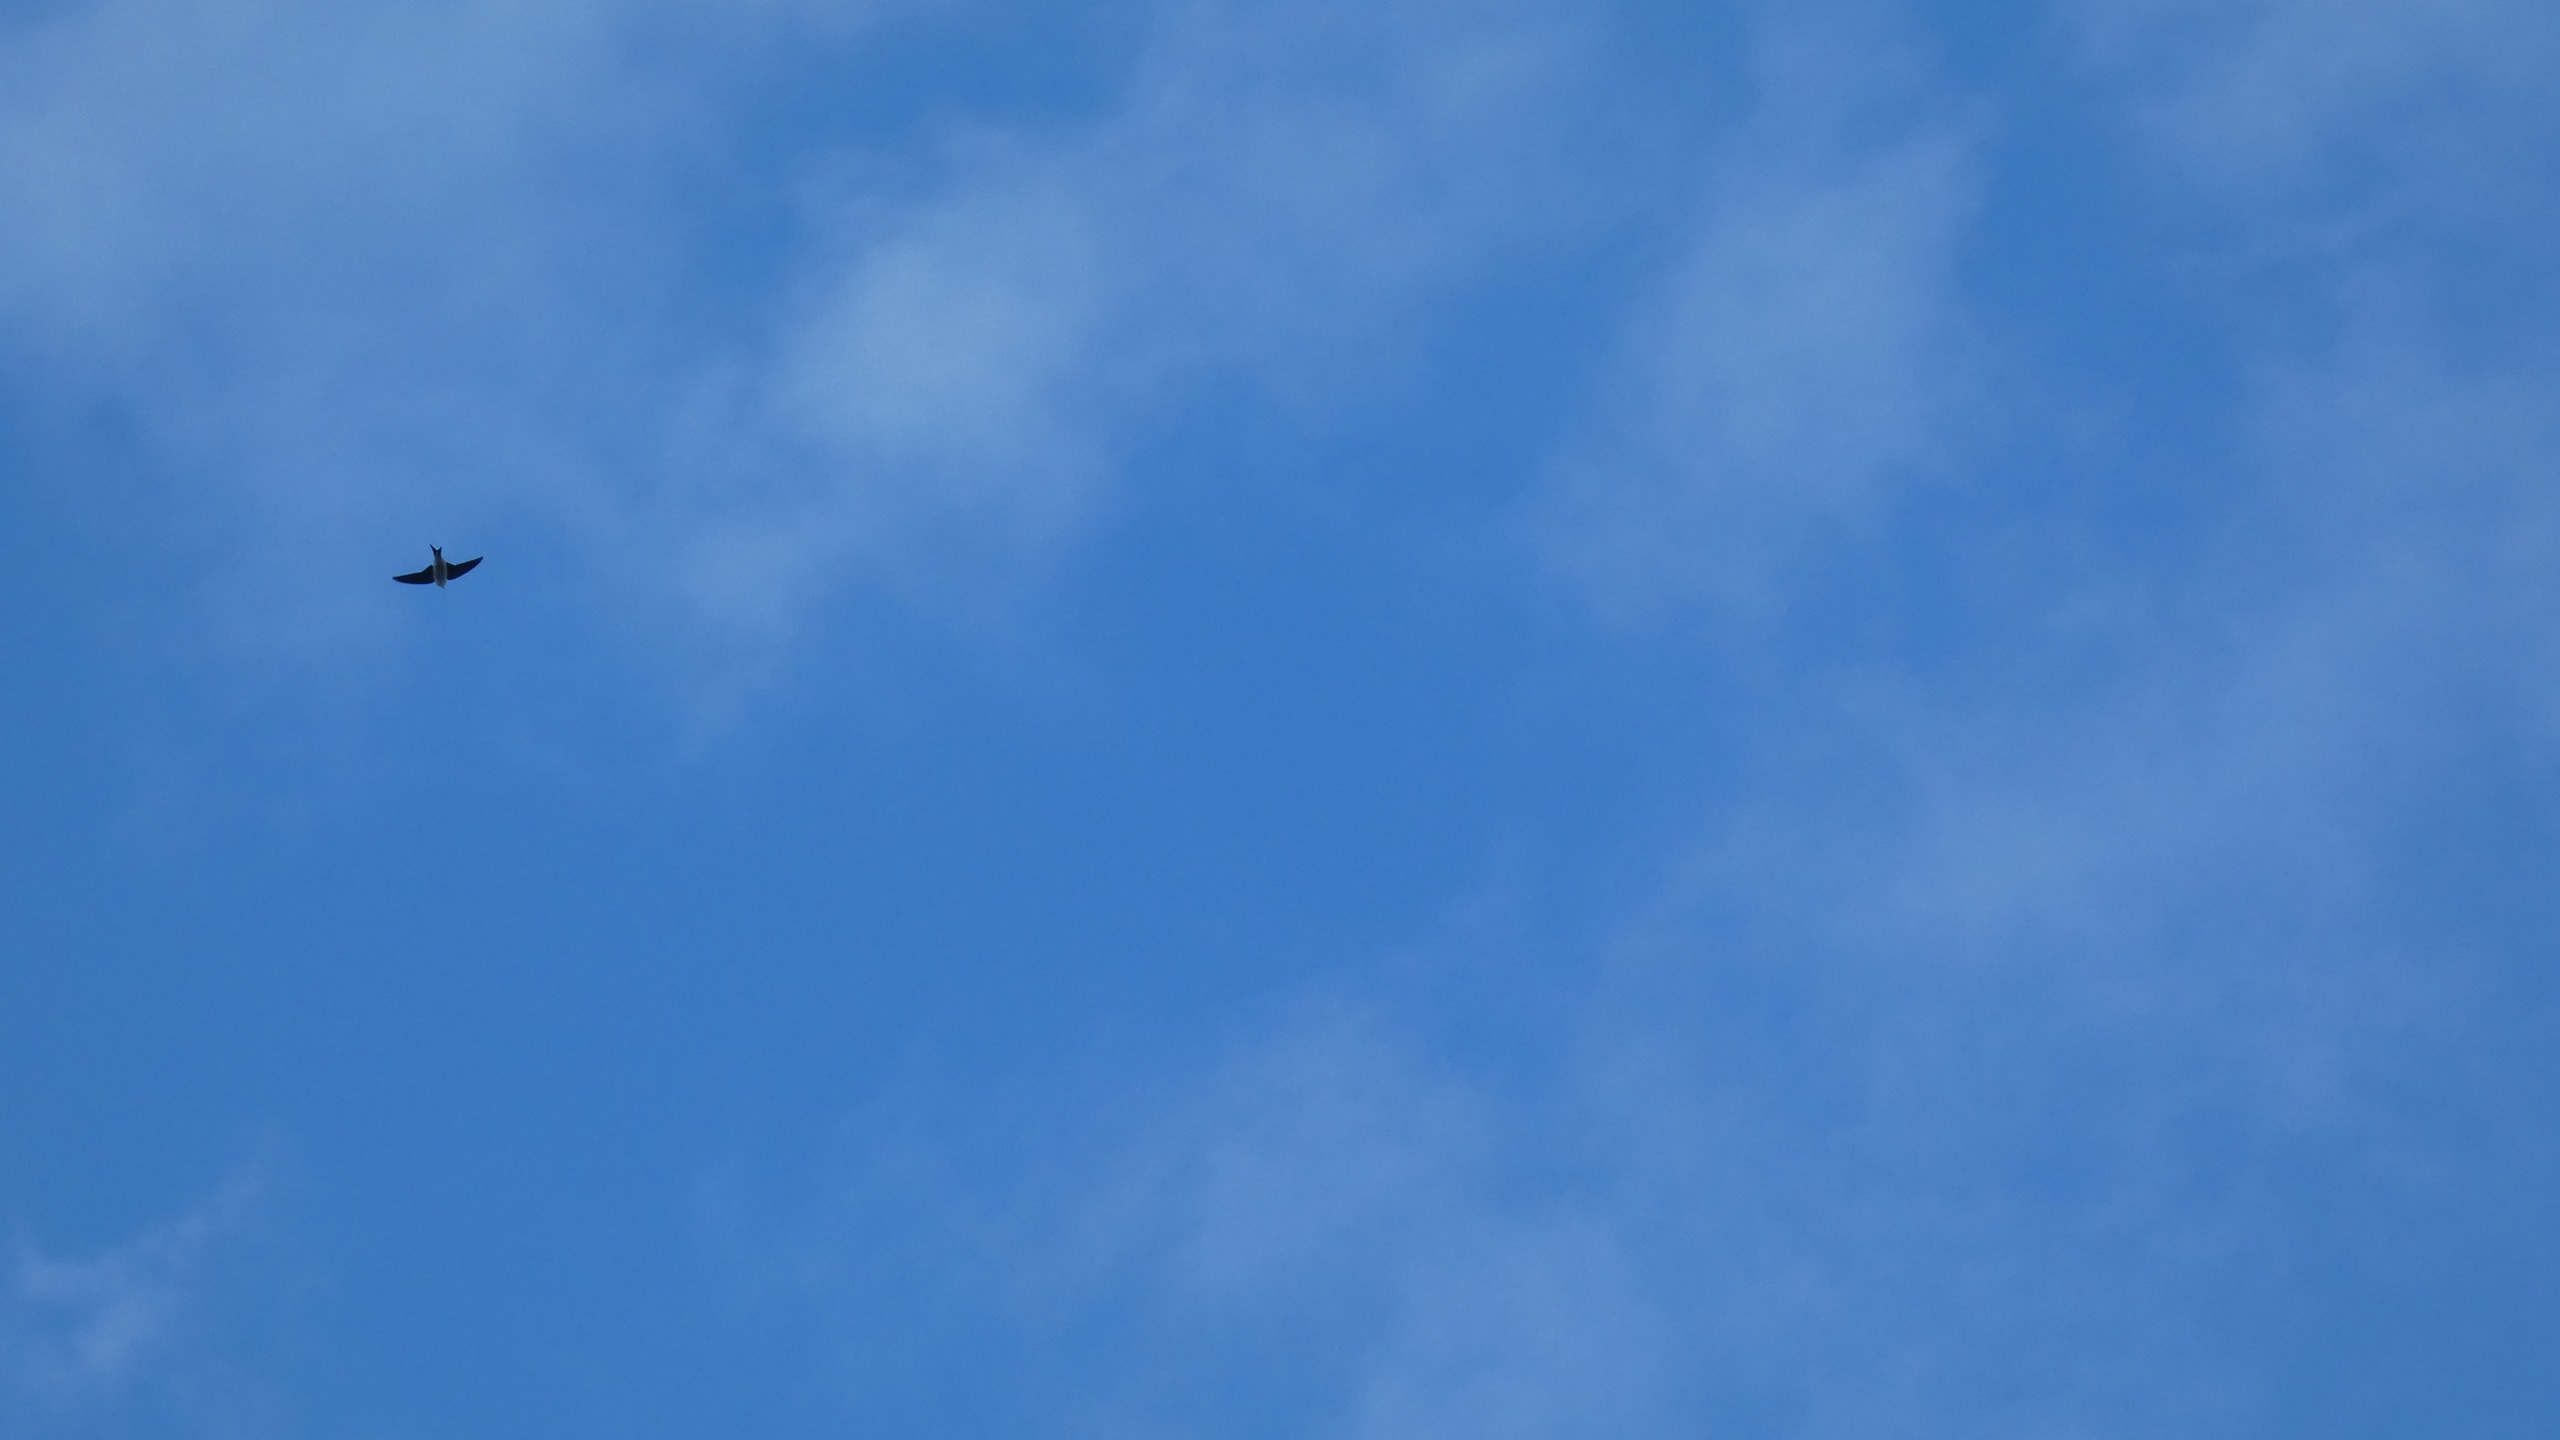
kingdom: Animalia
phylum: Chordata
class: Aves
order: Passeriformes
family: Hirundinidae
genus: Delichon
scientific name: Delichon urbicum
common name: Bysvale
